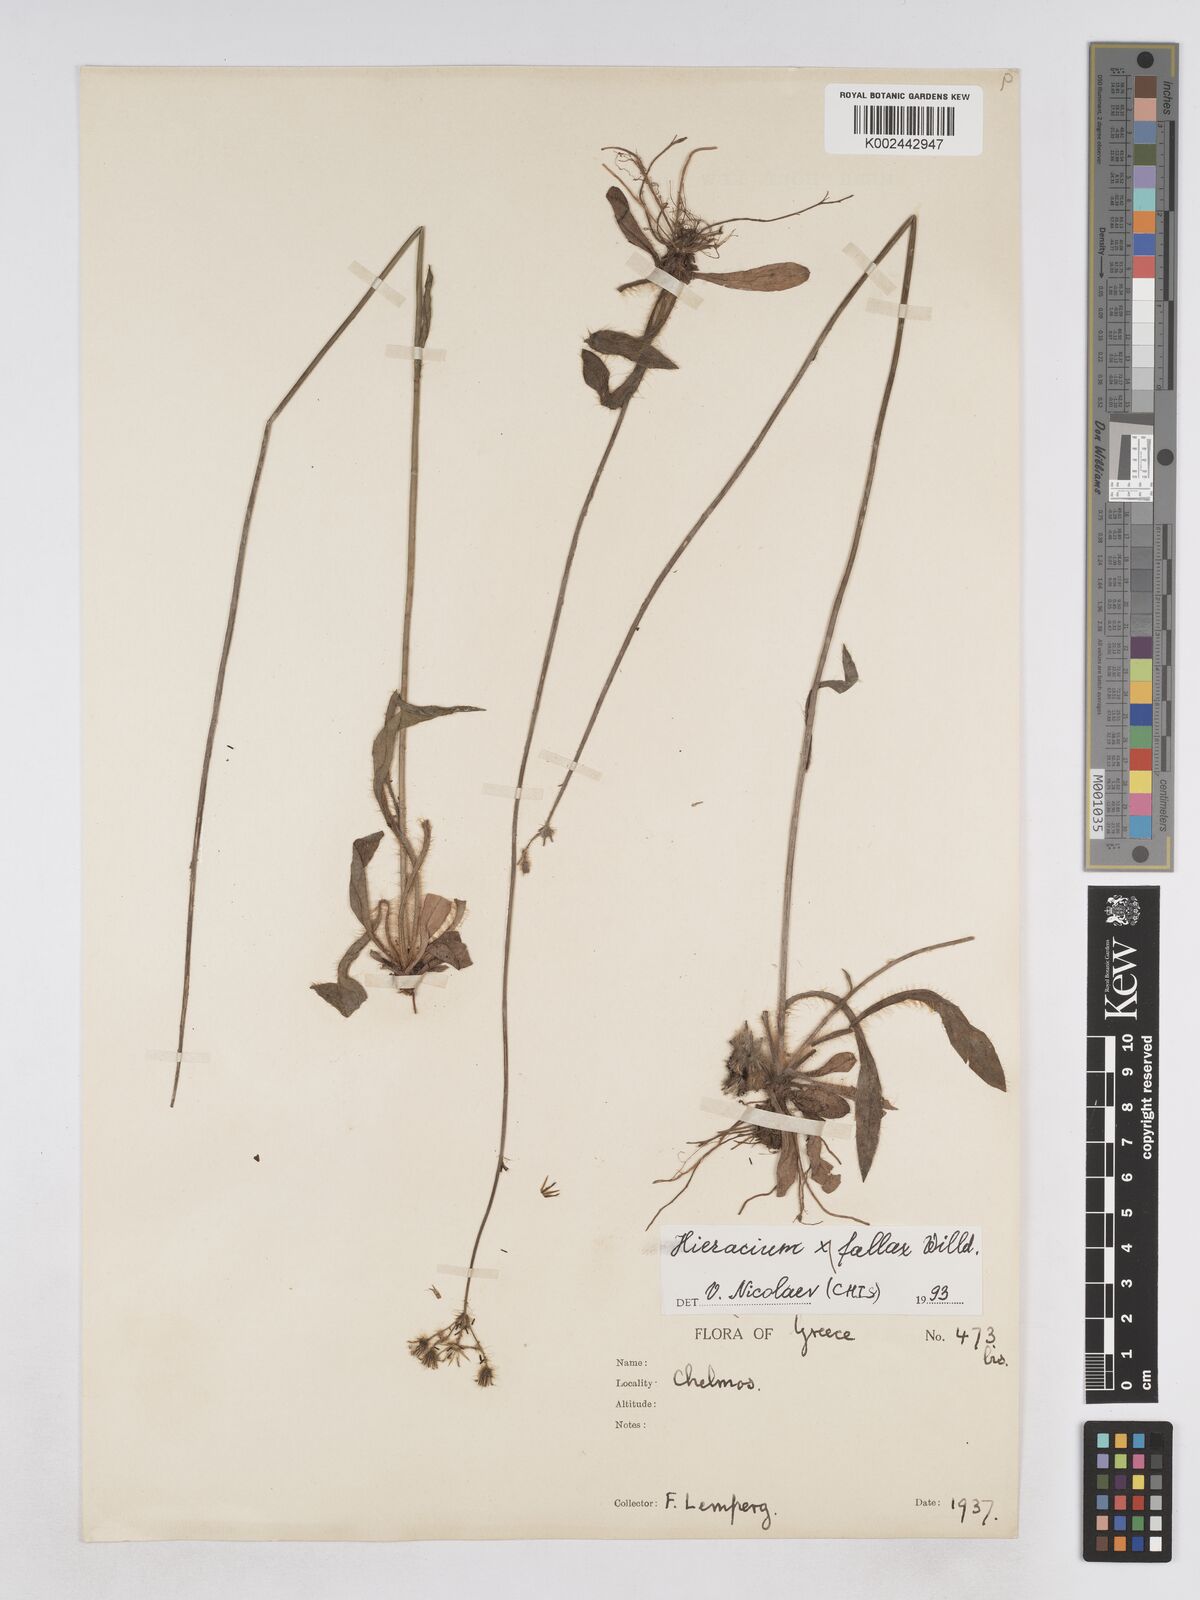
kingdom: Plantae
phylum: Tracheophyta
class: Magnoliopsida
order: Asterales
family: Asteraceae
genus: Pilosella
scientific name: Pilosella fallax
